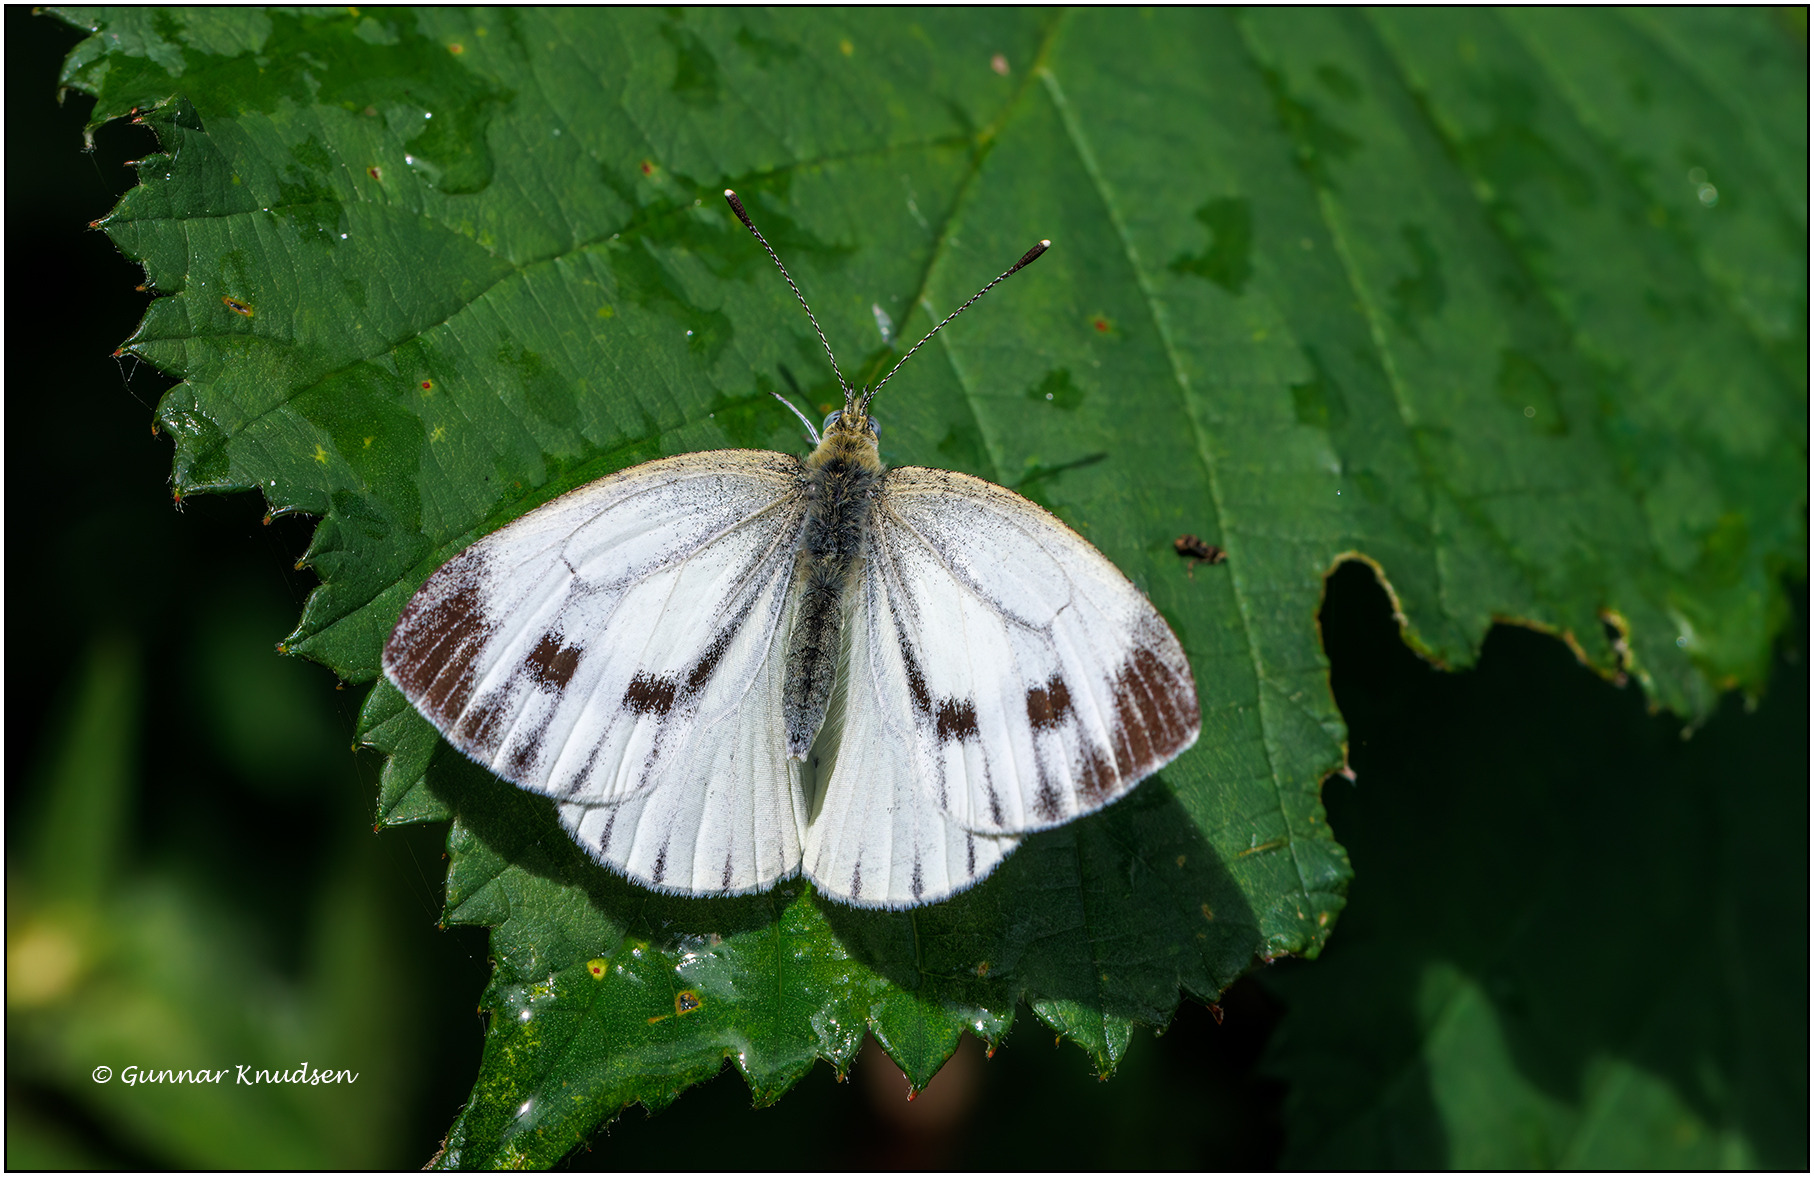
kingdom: Animalia
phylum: Arthropoda
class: Insecta
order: Lepidoptera
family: Pieridae
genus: Pieris
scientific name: Pieris napi
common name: Grønåret kålsommerfugl
